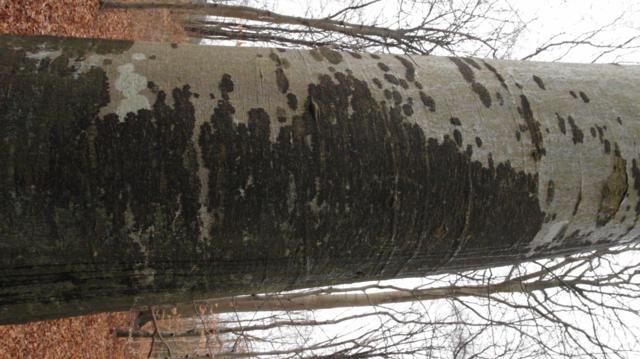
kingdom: Fungi
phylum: Ascomycota
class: Leotiomycetes
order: Rhytismatales
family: Ascodichaenaceae
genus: Ascodichaena
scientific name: Ascodichaena rugosa
